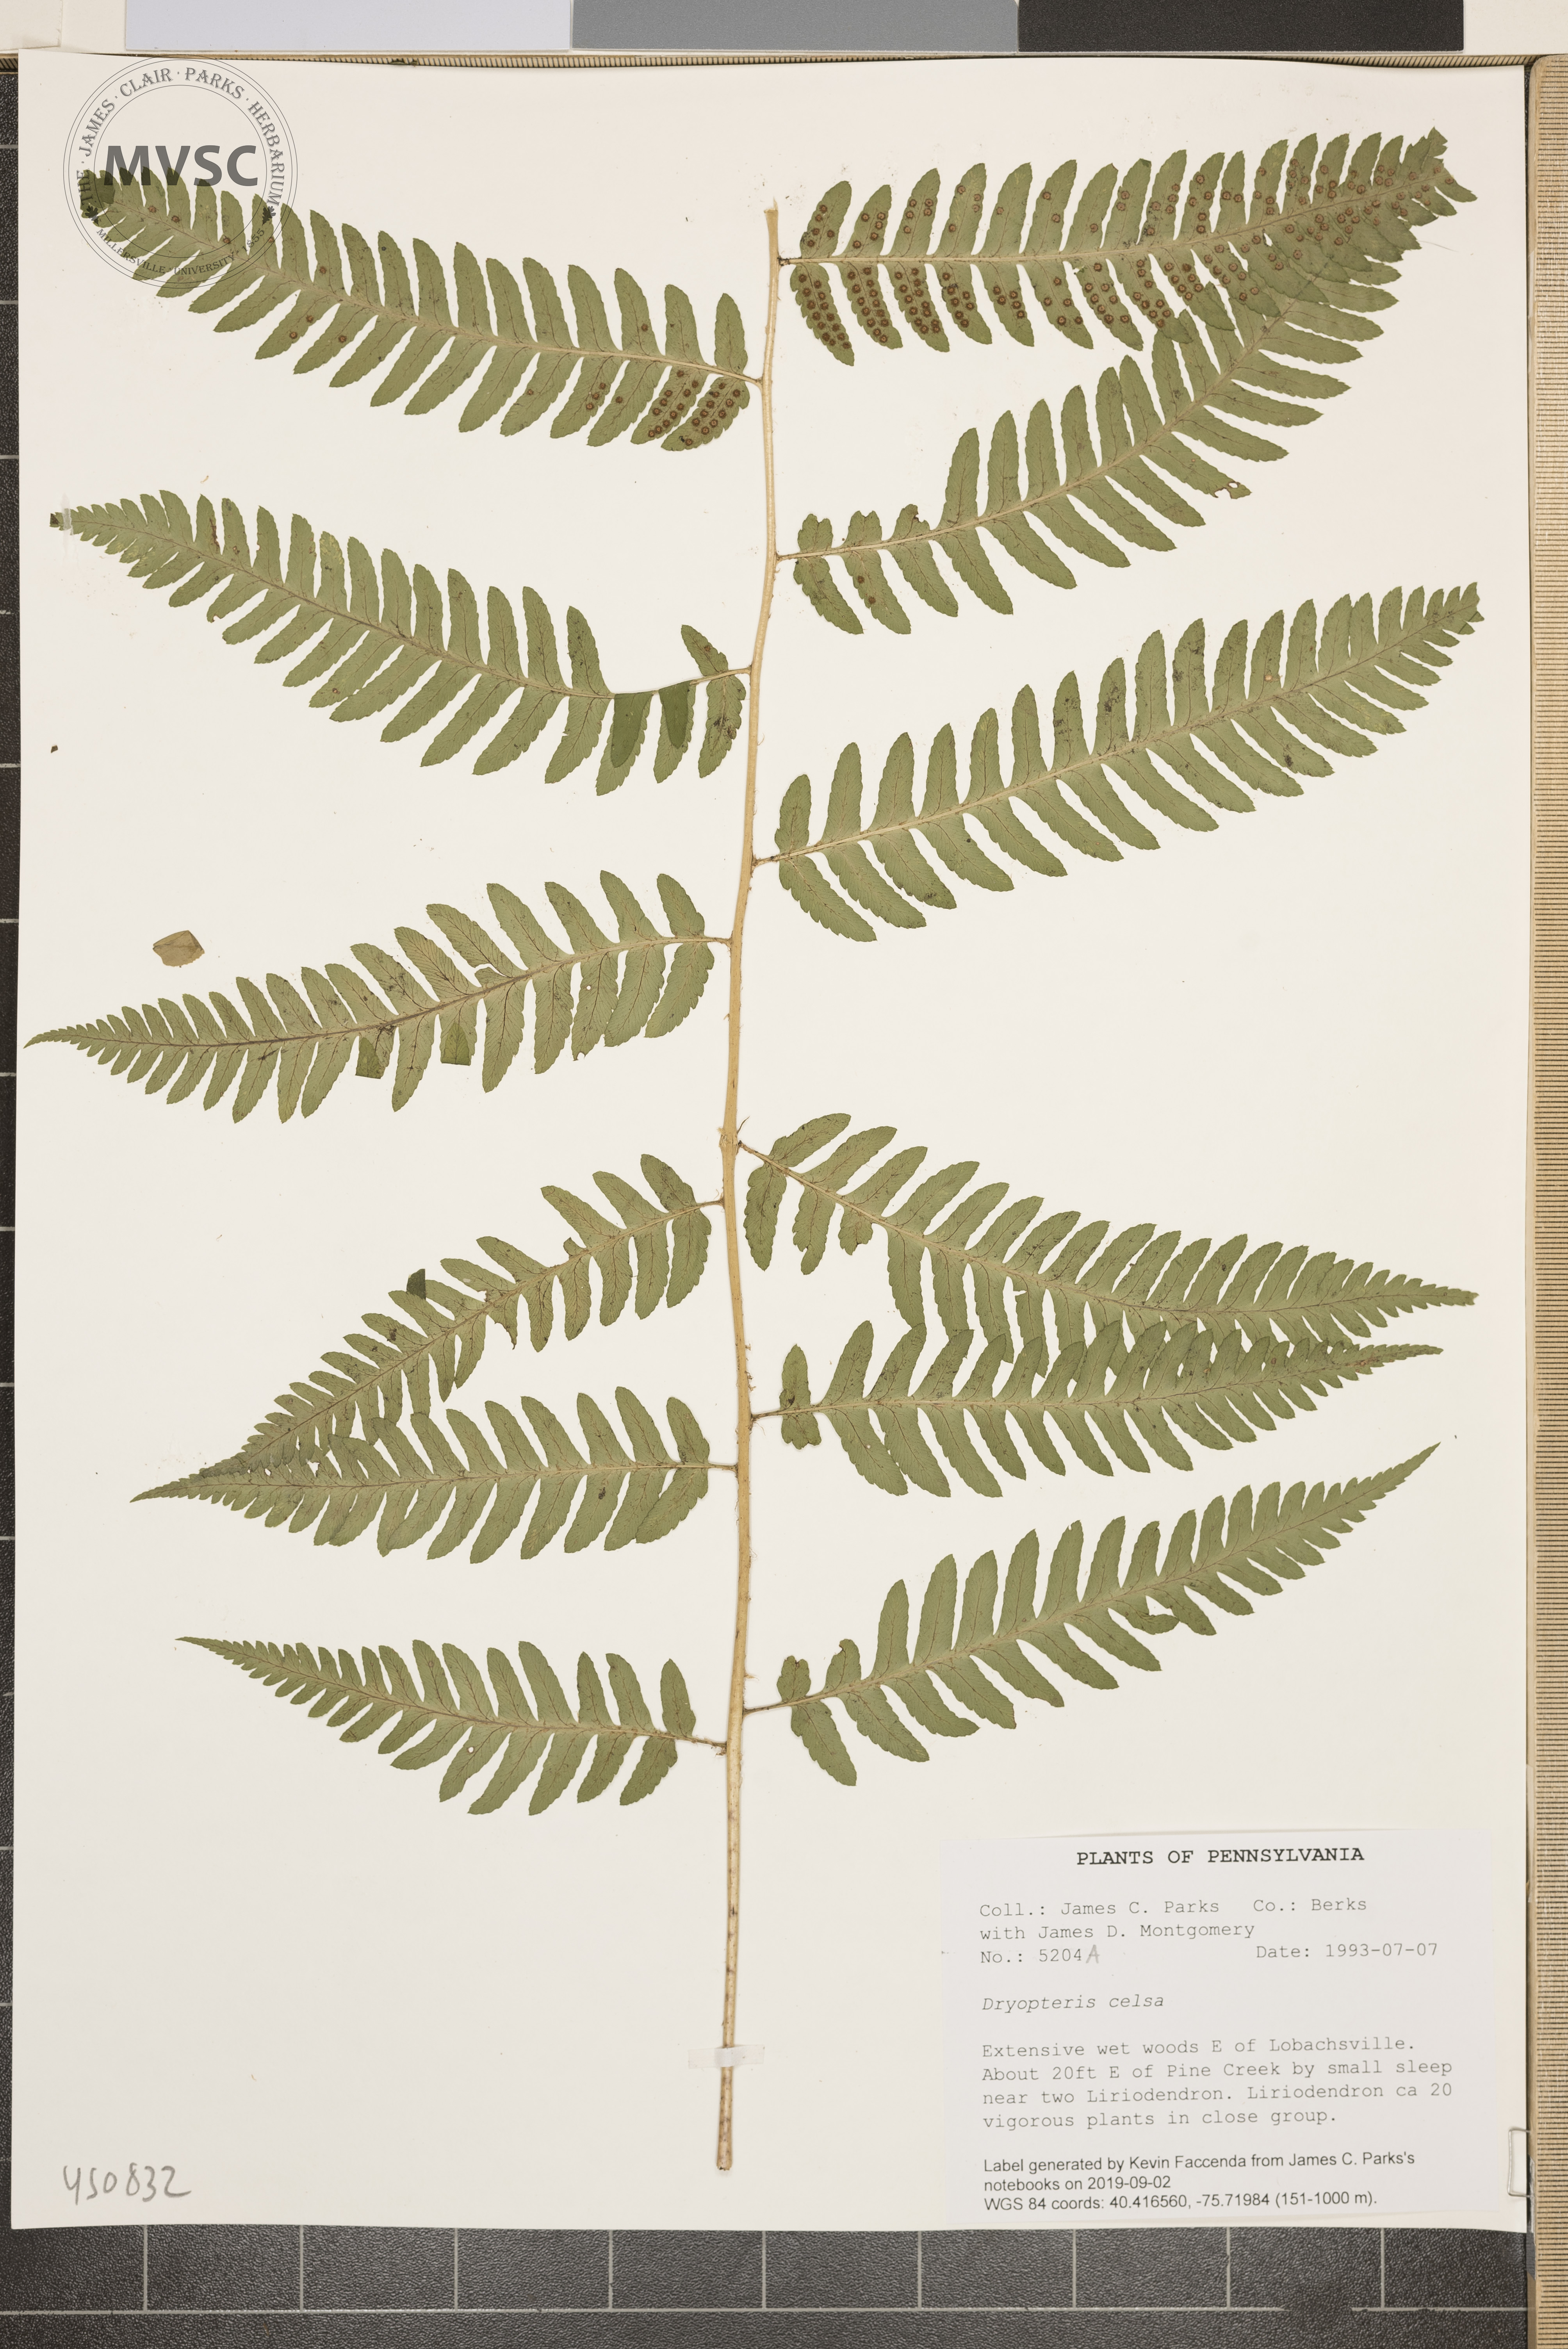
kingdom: Plantae
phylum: Tracheophyta
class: Polypodiopsida
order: Polypodiales
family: Dryopteridaceae
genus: Dryopteris
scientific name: Dryopteris celsa
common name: Log fern
